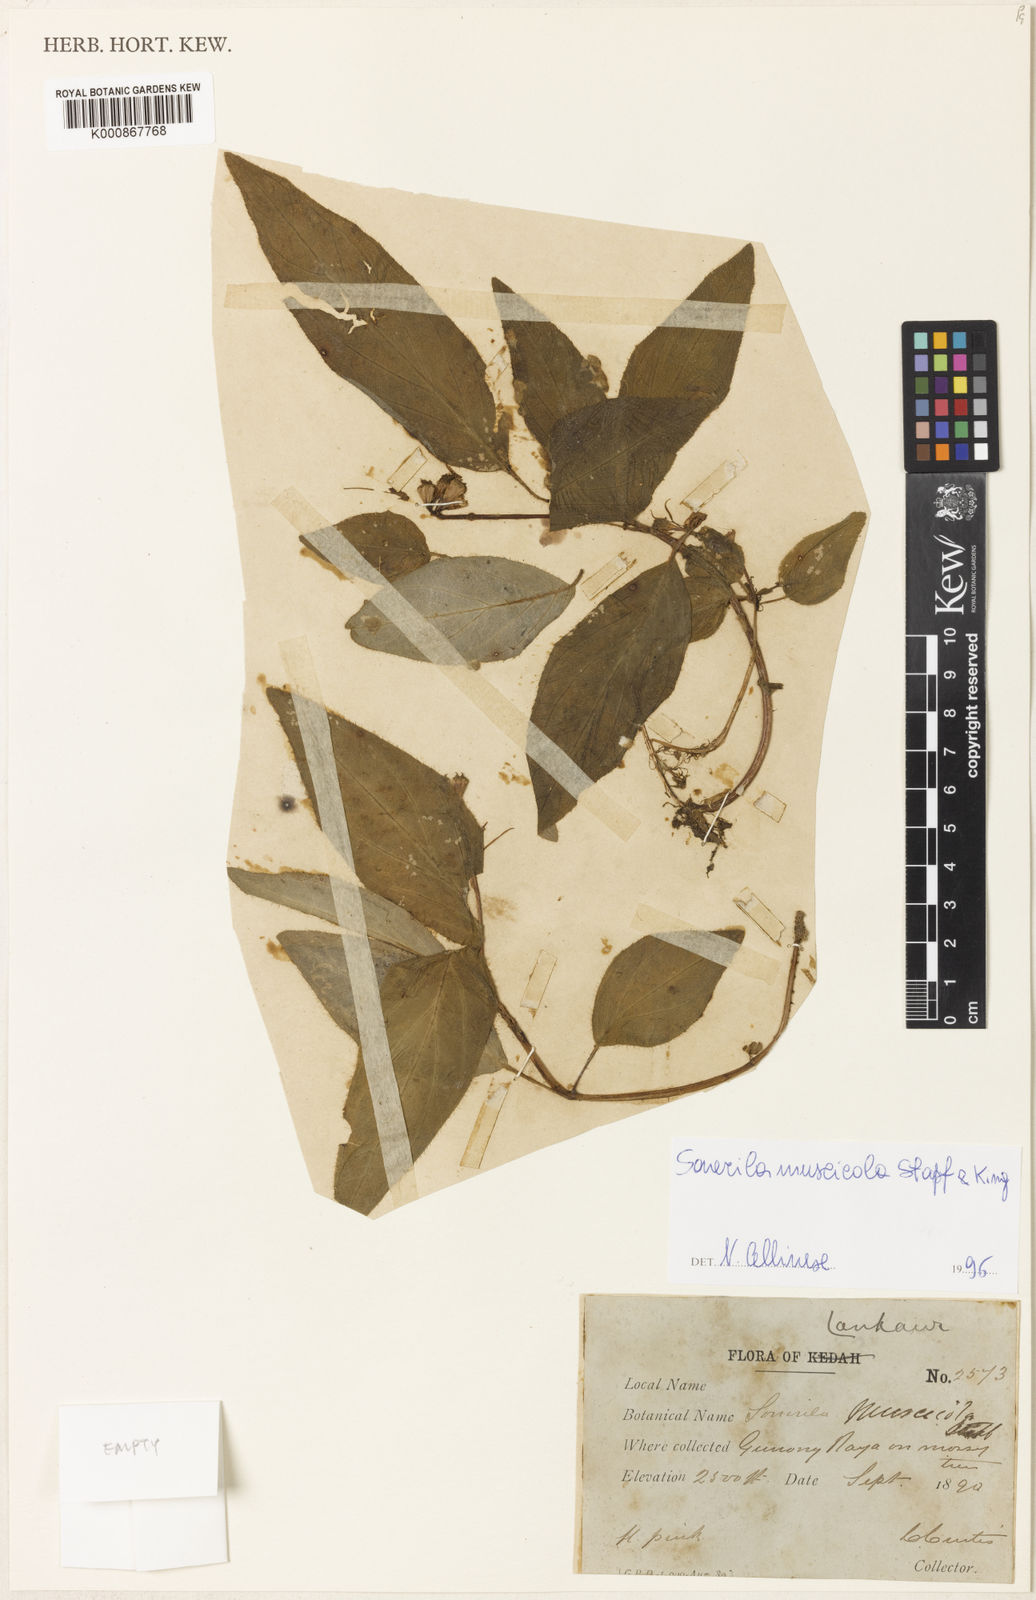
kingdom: Plantae
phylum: Tracheophyta
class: Magnoliopsida
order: Myrtales
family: Melastomataceae
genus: Sonerila
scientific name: Sonerila griffithii
